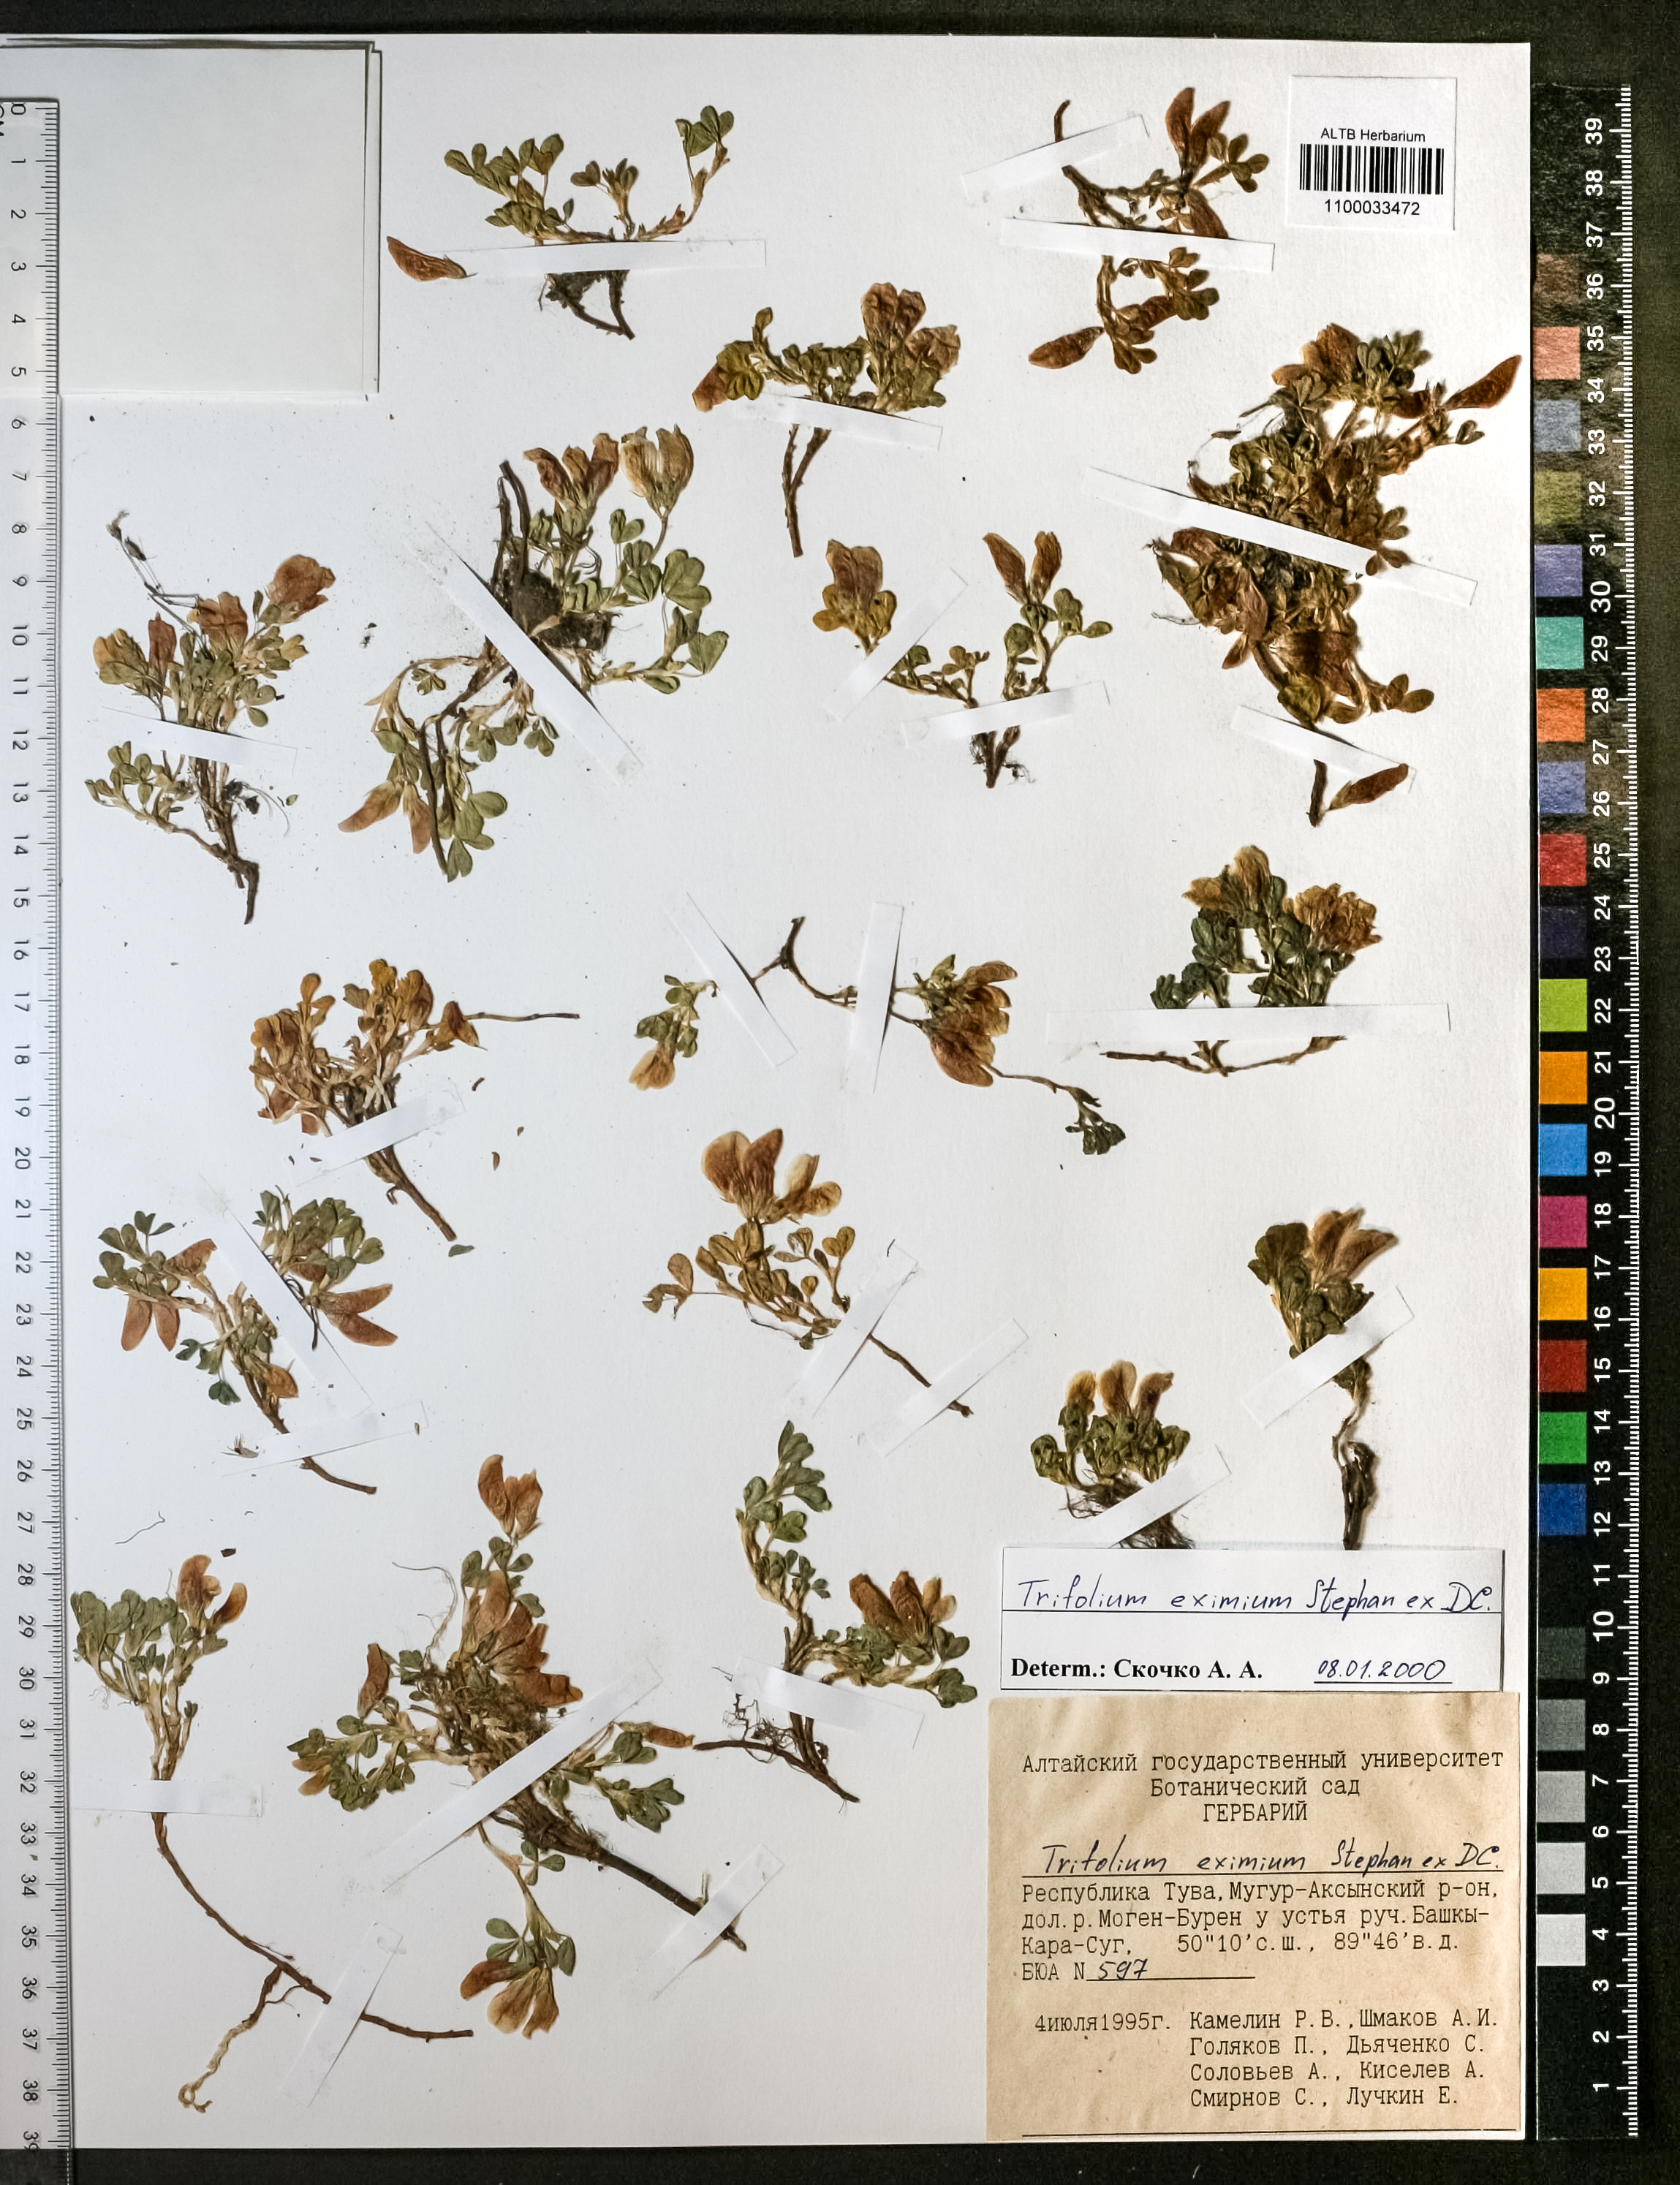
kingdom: Plantae
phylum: Tracheophyta
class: Magnoliopsida
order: Fabales
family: Fabaceae
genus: Trifolium
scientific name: Trifolium eximium
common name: Excellent clover
